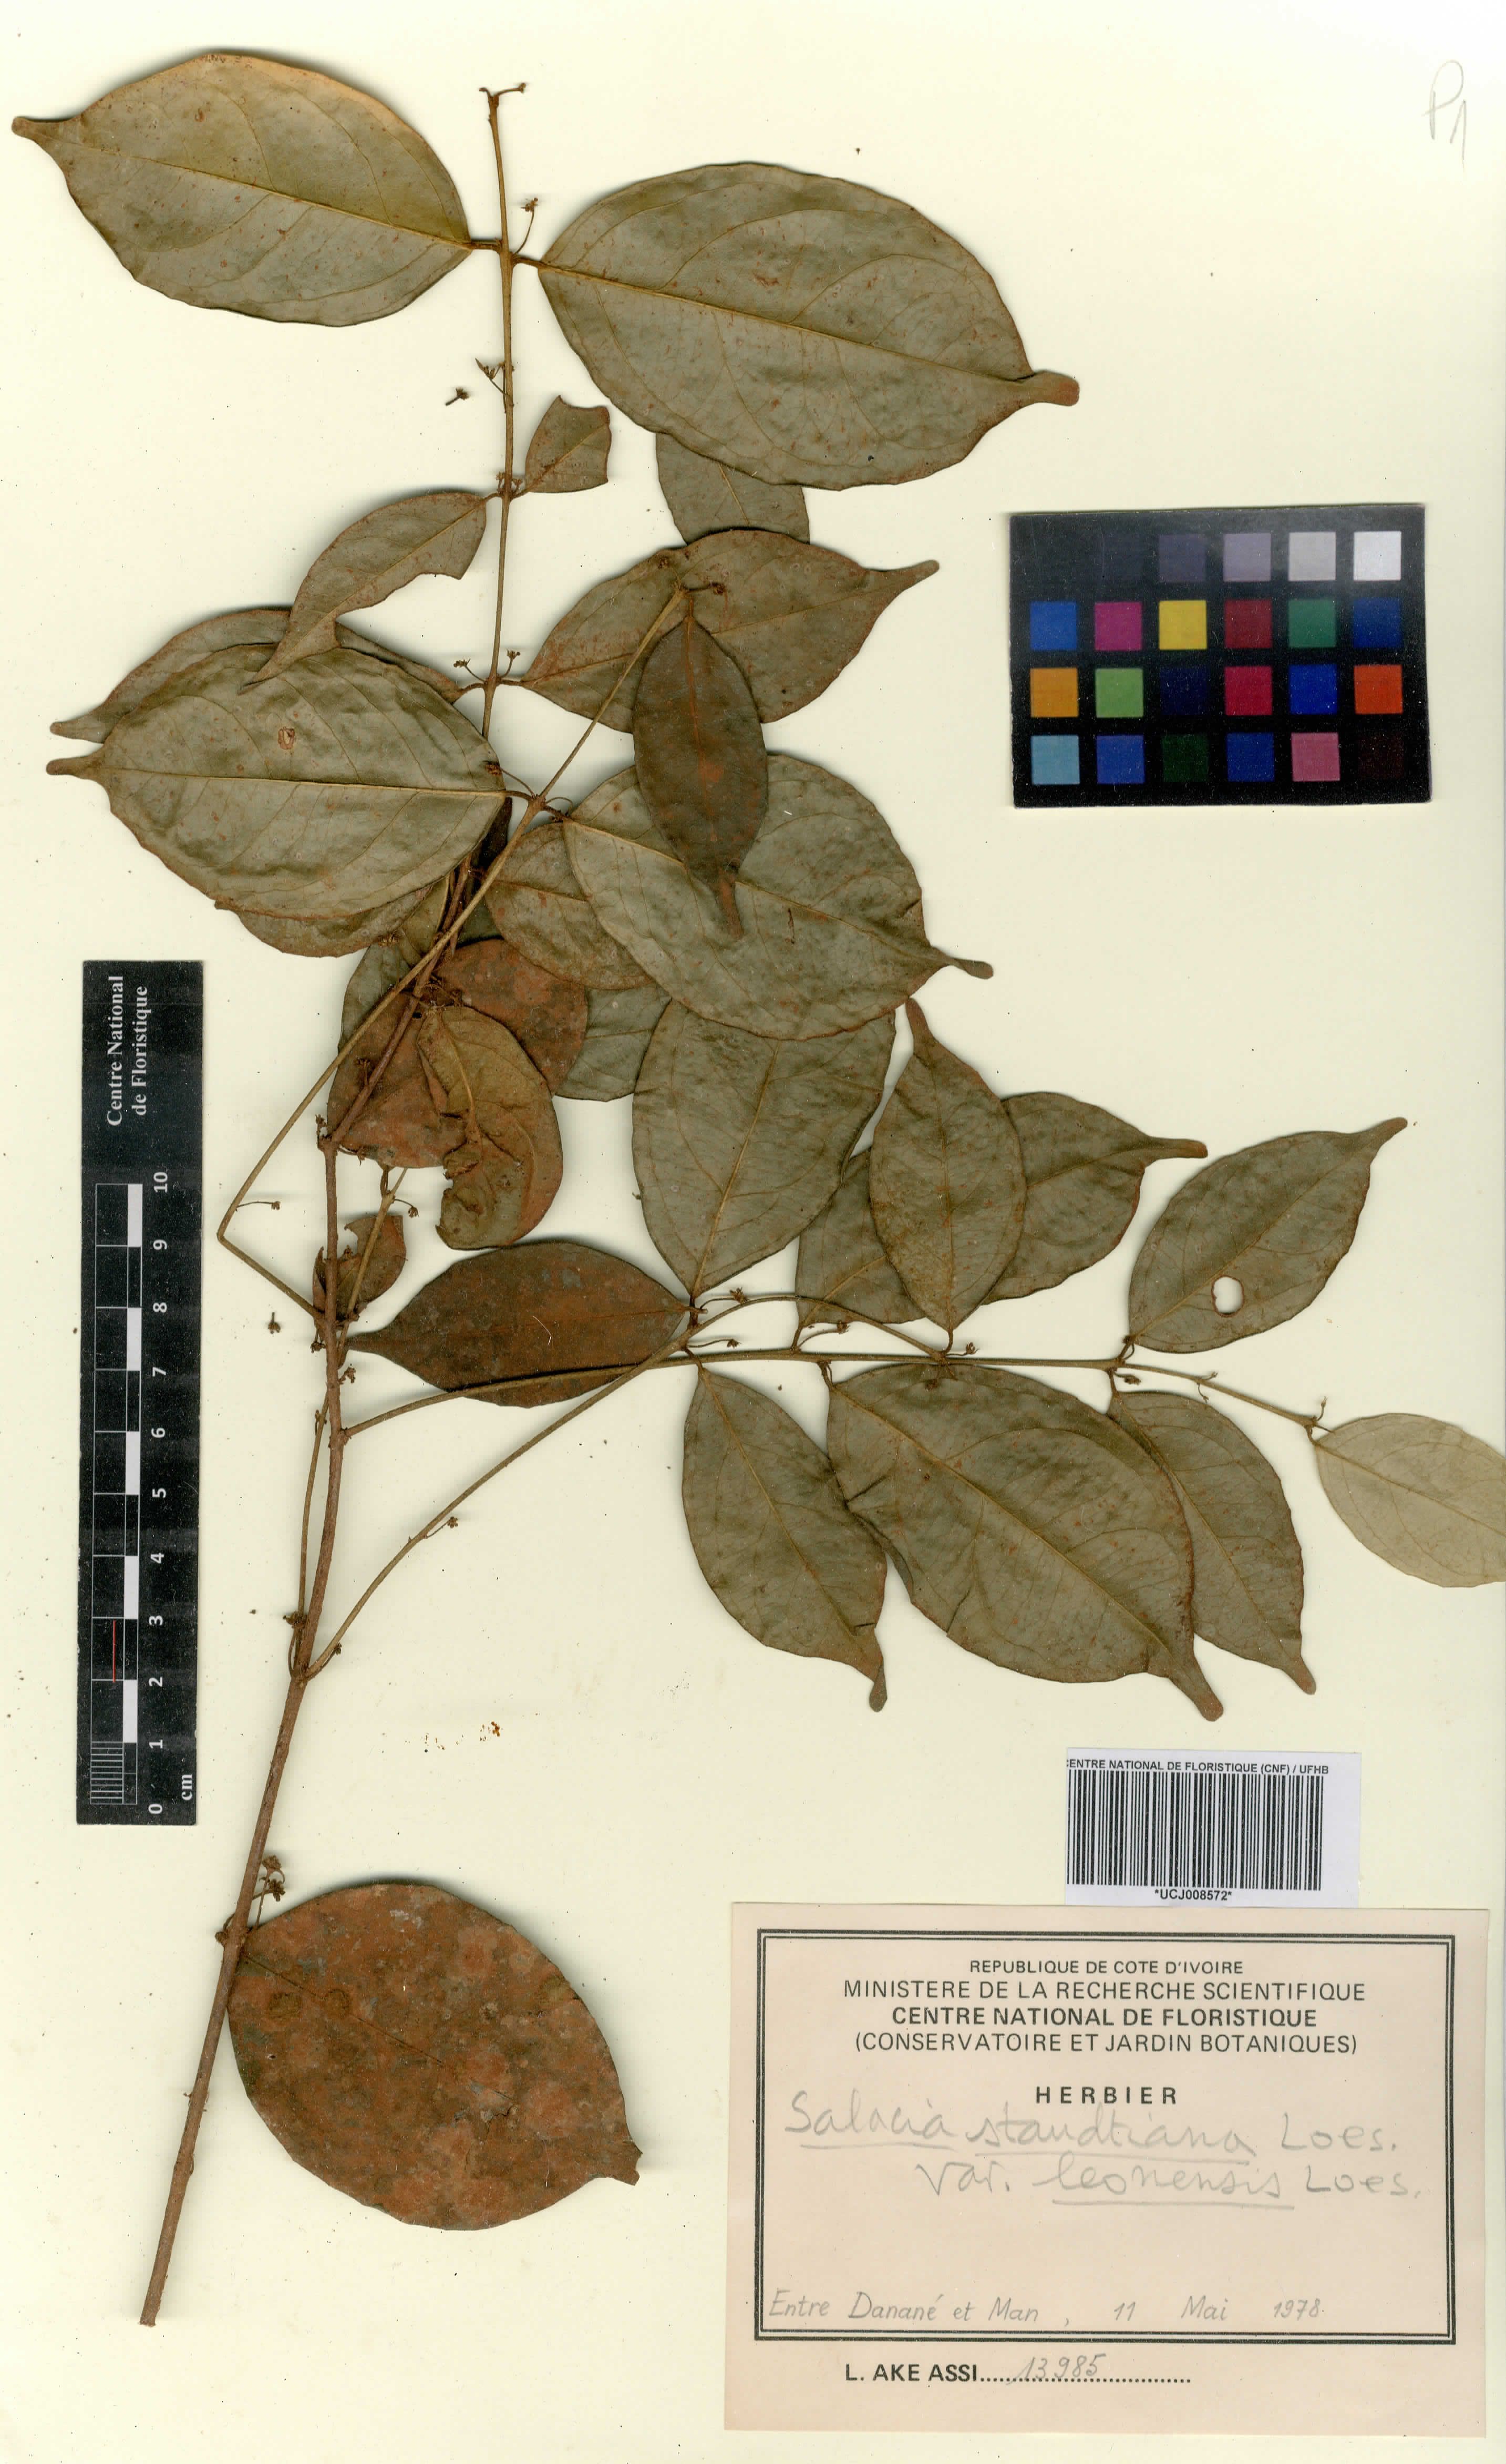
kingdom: Plantae
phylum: Tracheophyta
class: Magnoliopsida
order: Celastrales
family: Celastraceae
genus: Salacia
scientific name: Salacia caillei
